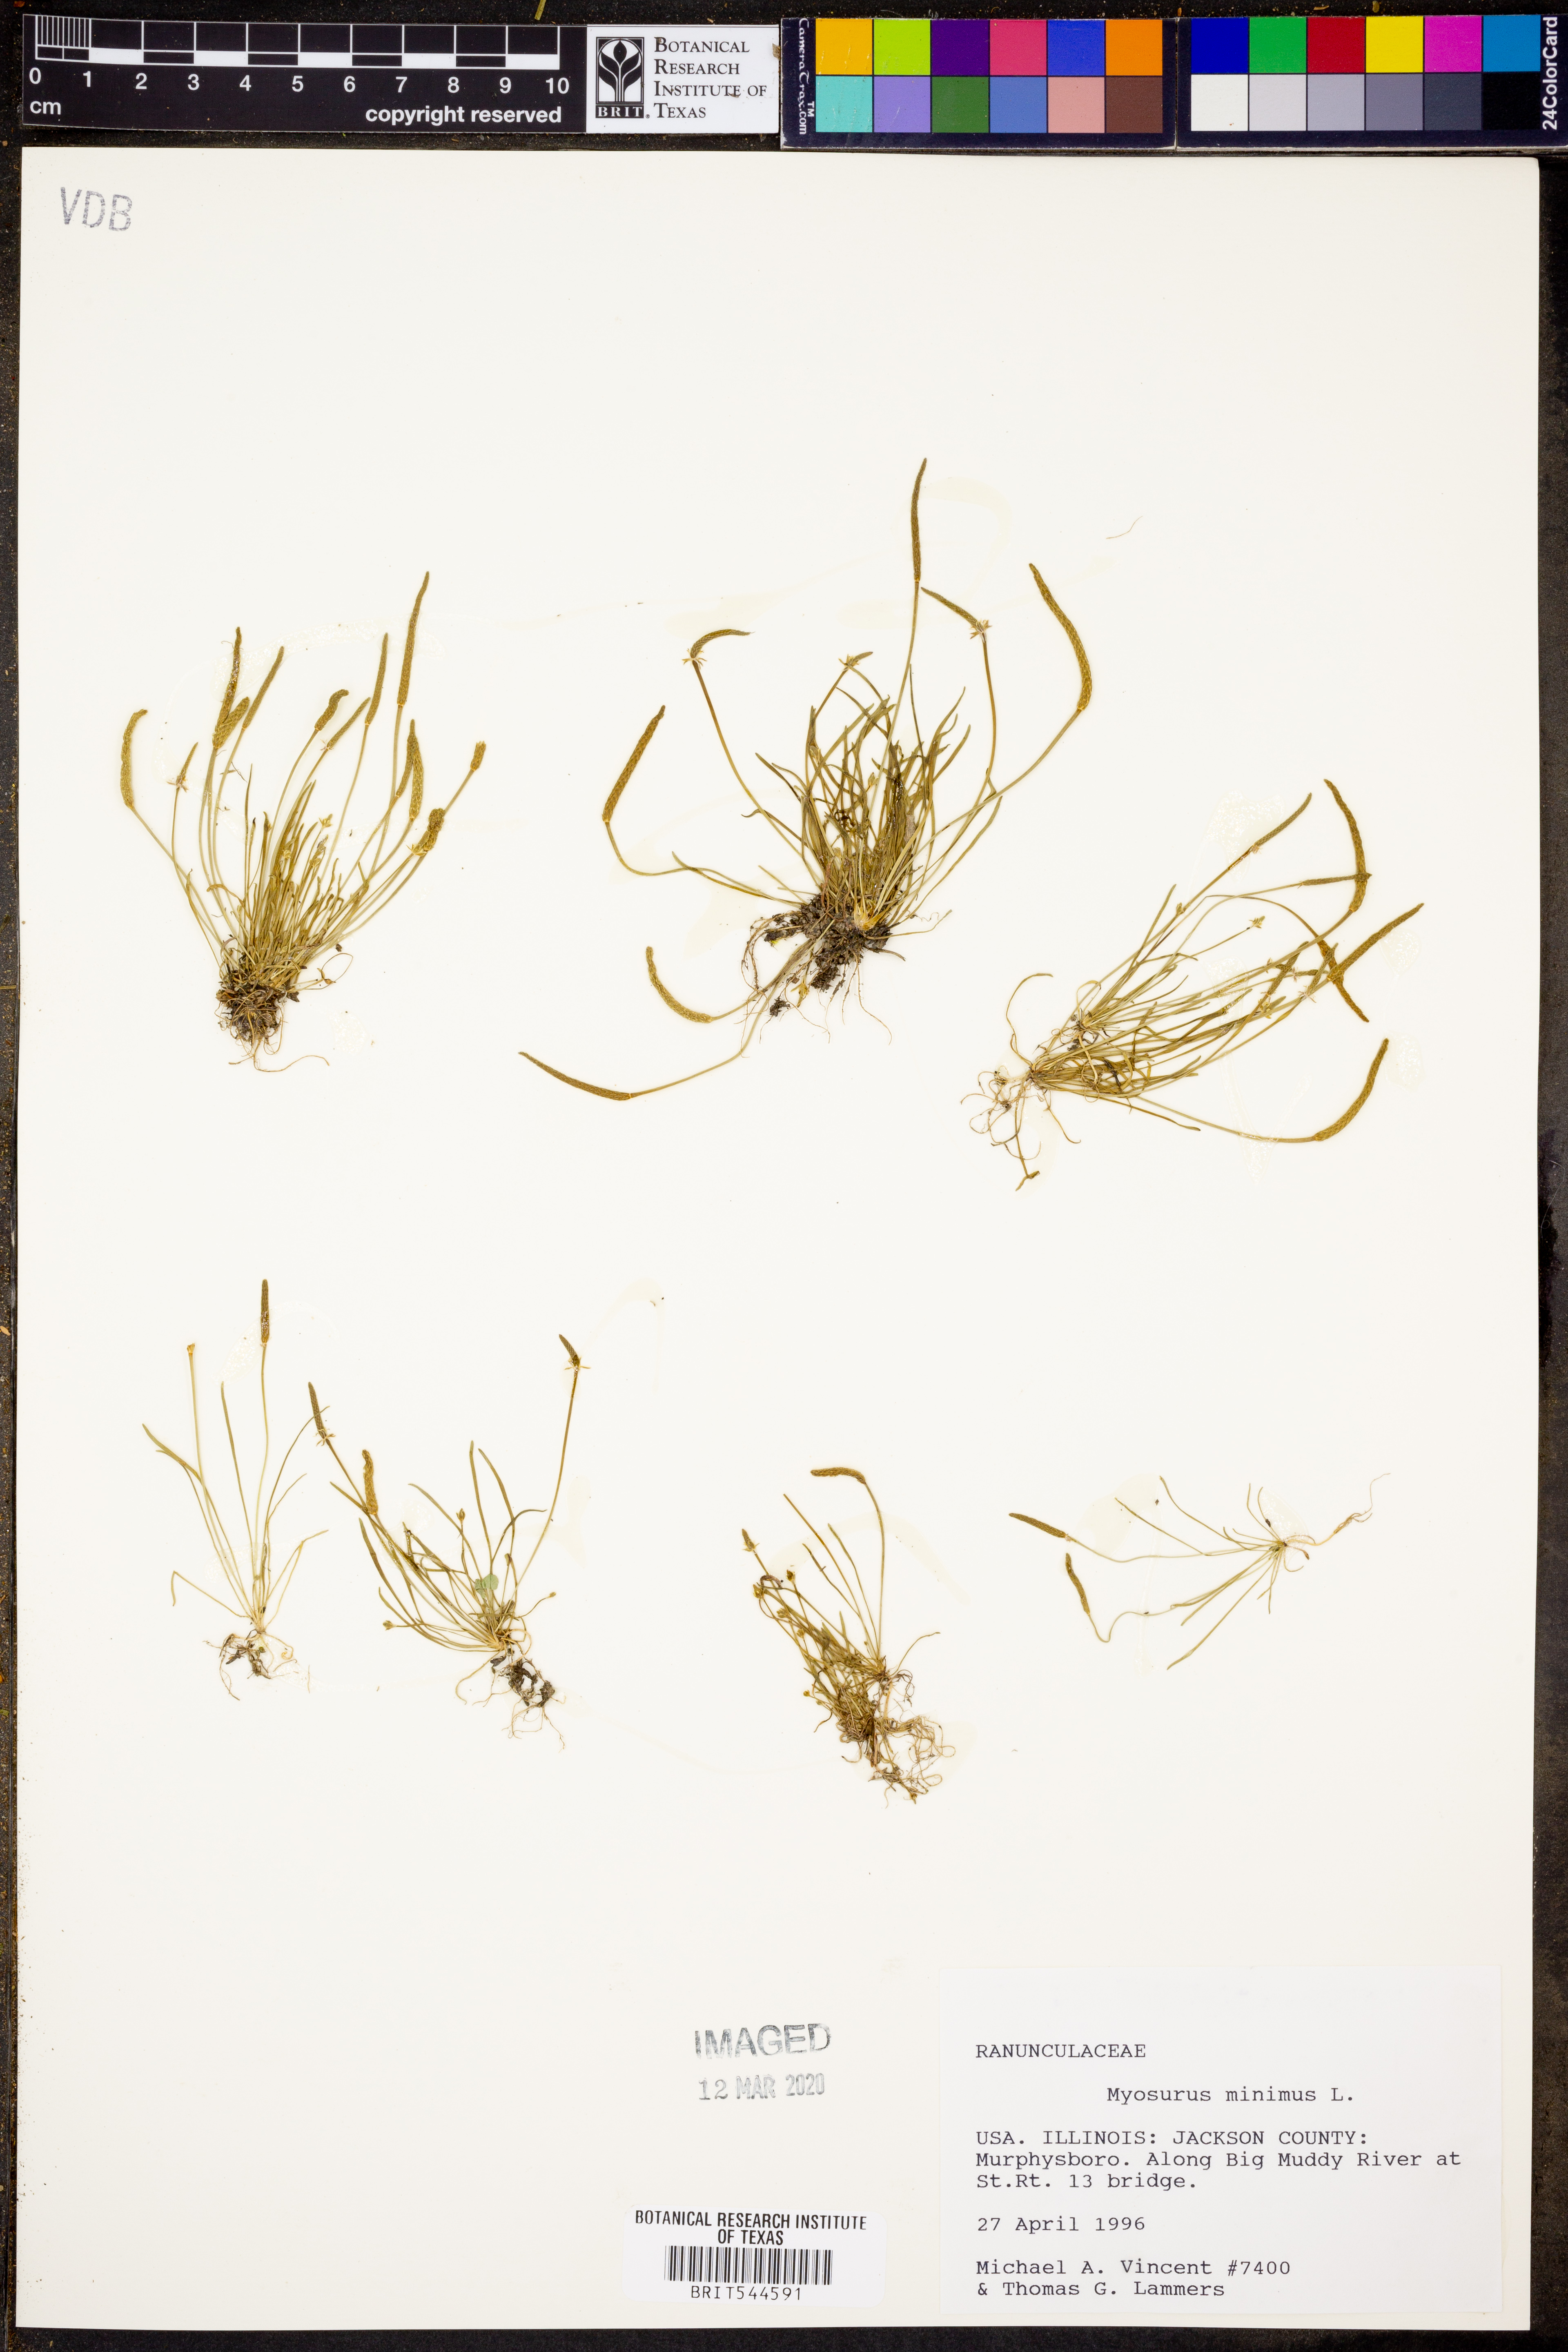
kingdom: Plantae
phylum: Tracheophyta
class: Magnoliopsida
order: Ranunculales
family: Ranunculaceae
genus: Myosurus
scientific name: Myosurus minimus
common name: Mousetail
